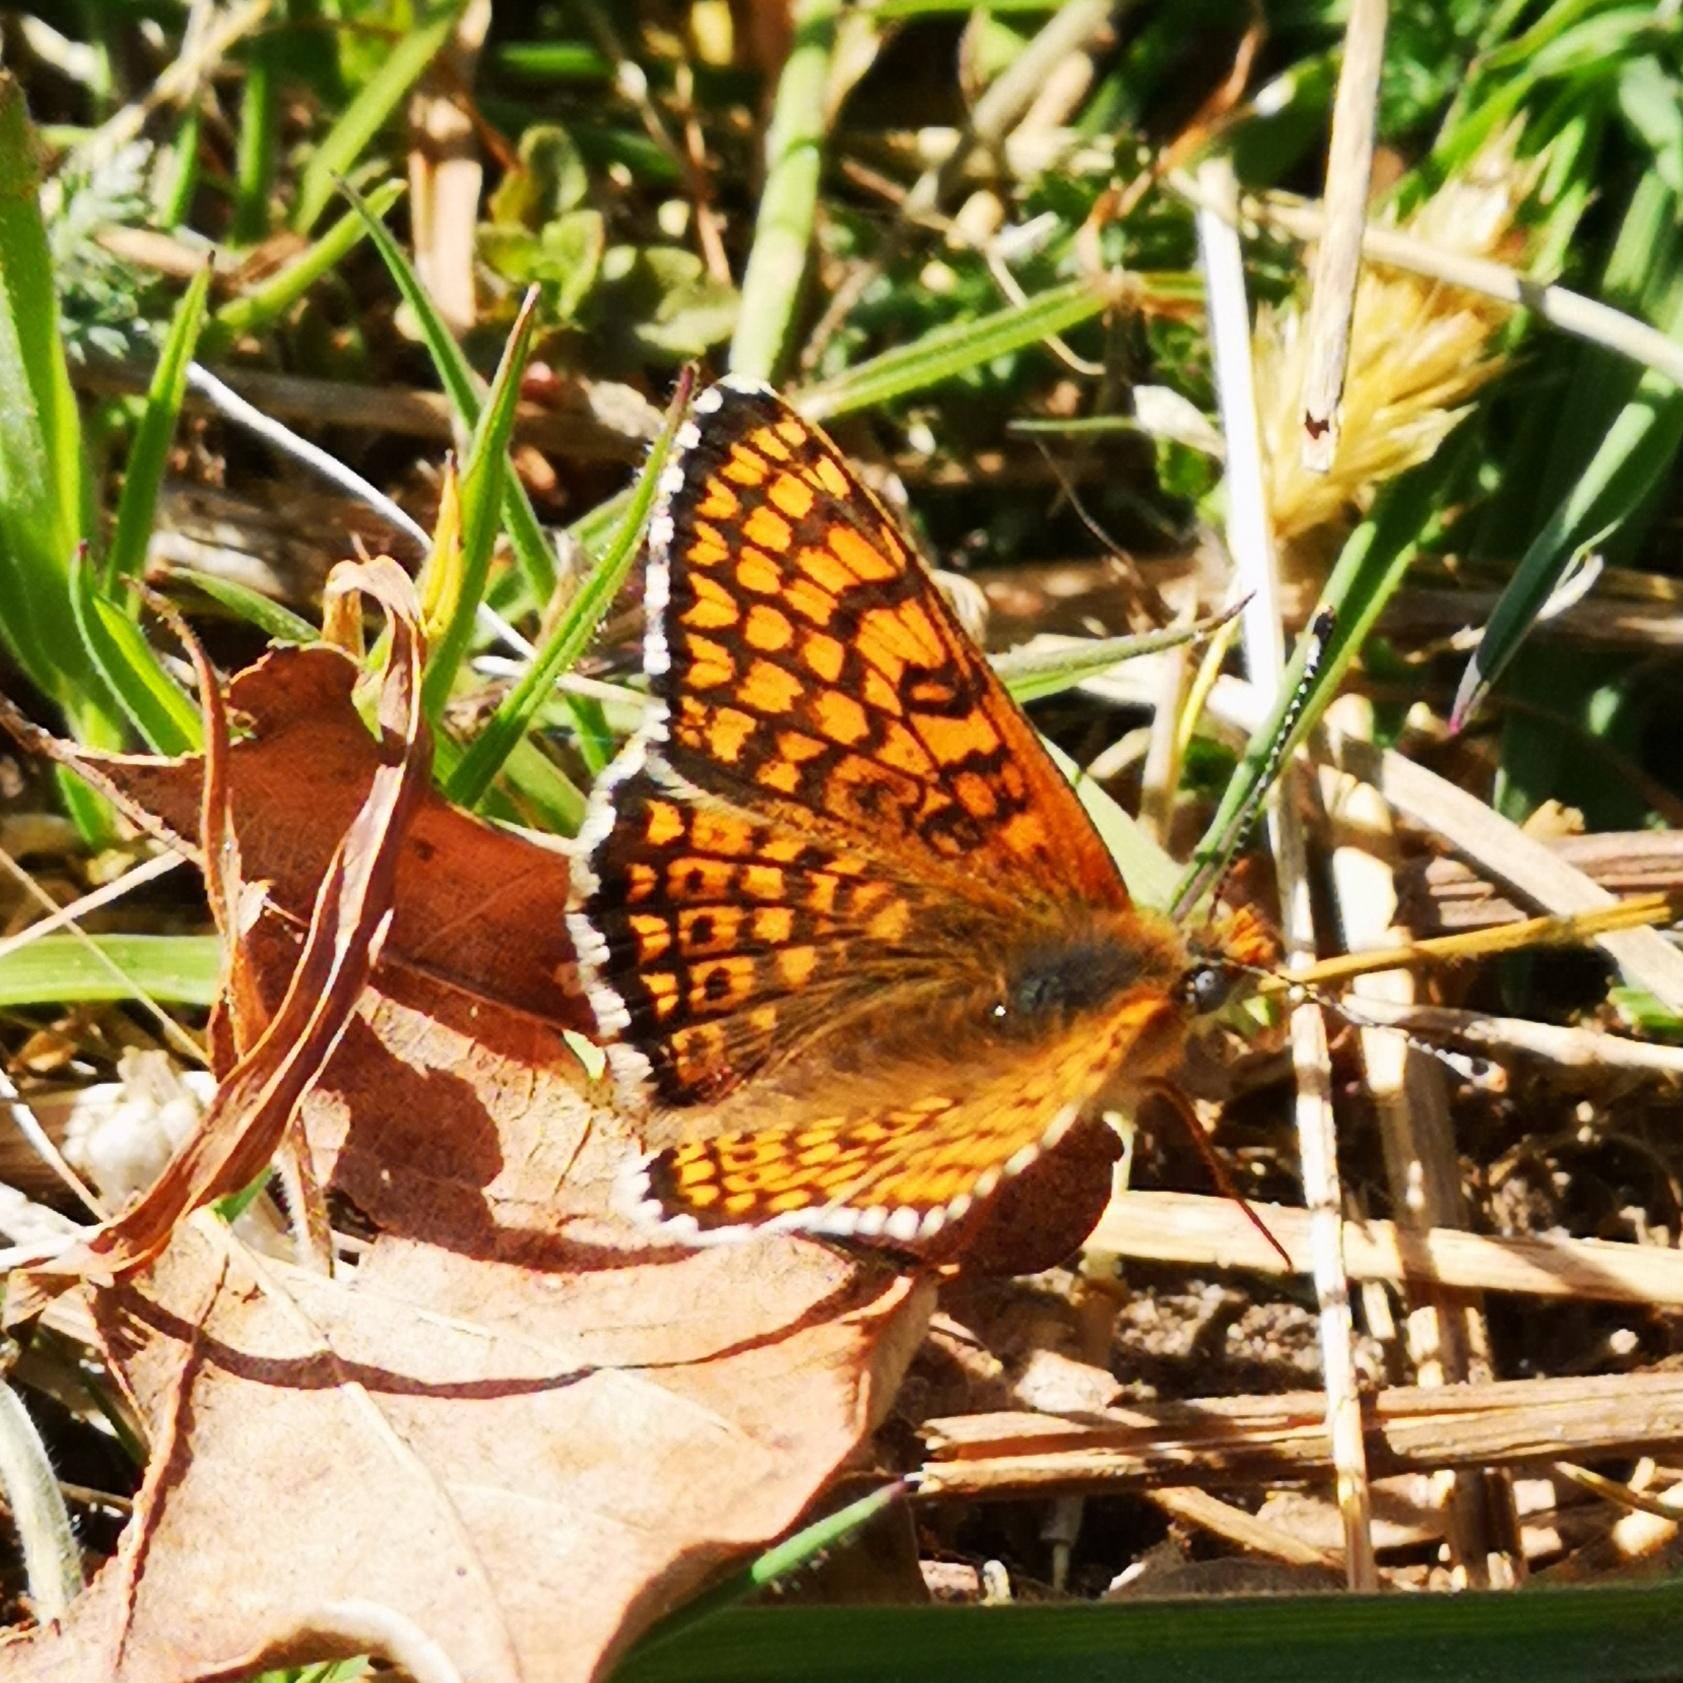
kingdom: Animalia
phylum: Arthropoda
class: Insecta
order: Lepidoptera
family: Nymphalidae
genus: Melitaea
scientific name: Melitaea cinxia
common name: Okkergul pletvinge
